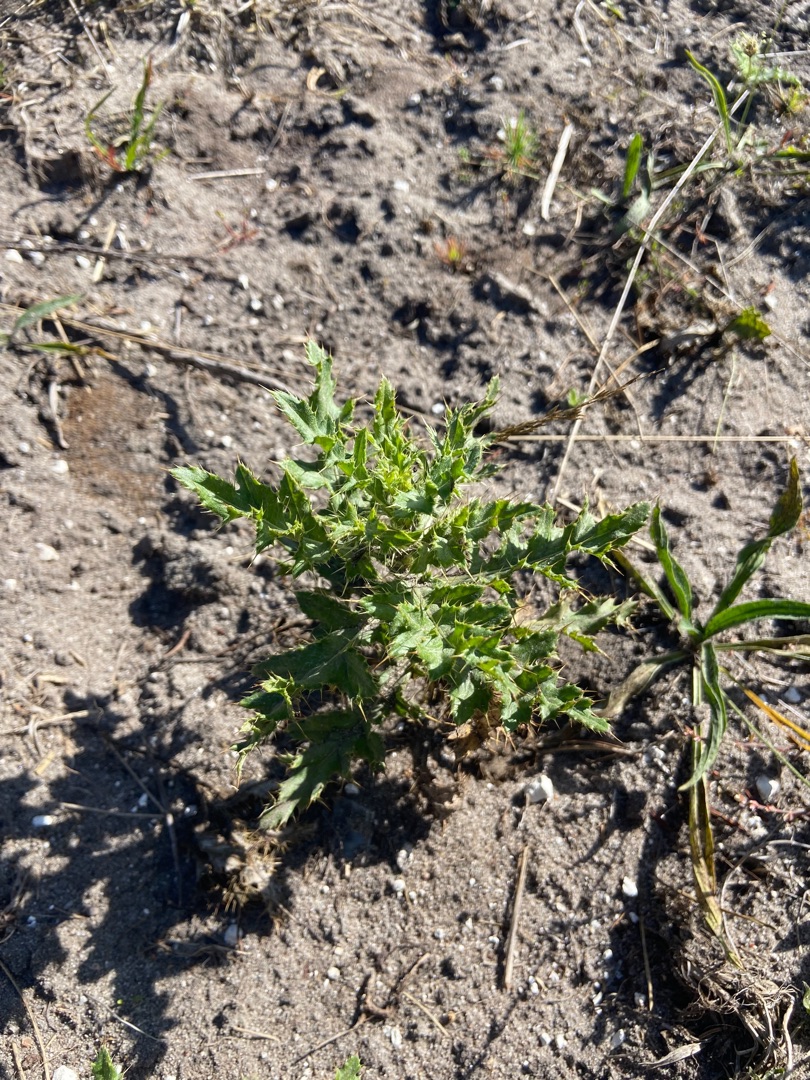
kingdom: Plantae
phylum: Tracheophyta
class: Magnoliopsida
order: Asterales
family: Asteraceae
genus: Cirsium
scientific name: Cirsium arvense
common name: Ager-tidsel
